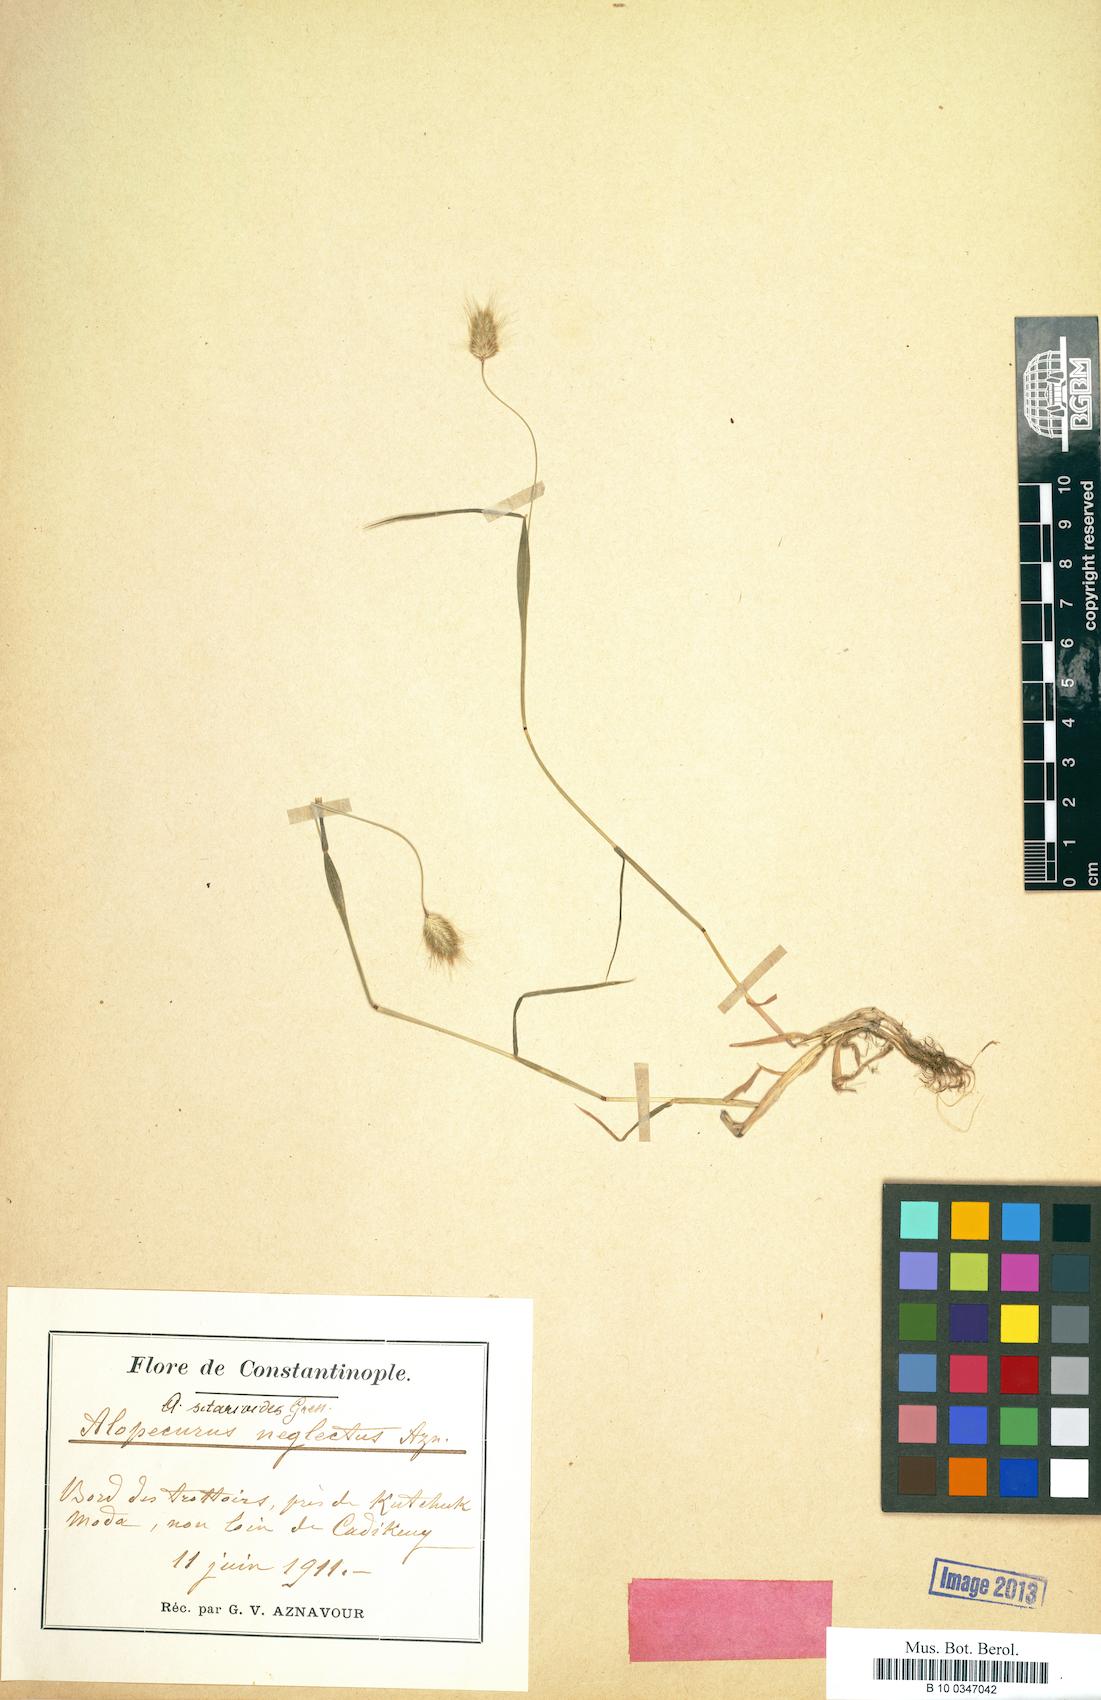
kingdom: Plantae
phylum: Tracheophyta
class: Liliopsida
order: Poales
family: Poaceae
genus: Alopecurus
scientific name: Alopecurus setarioides
